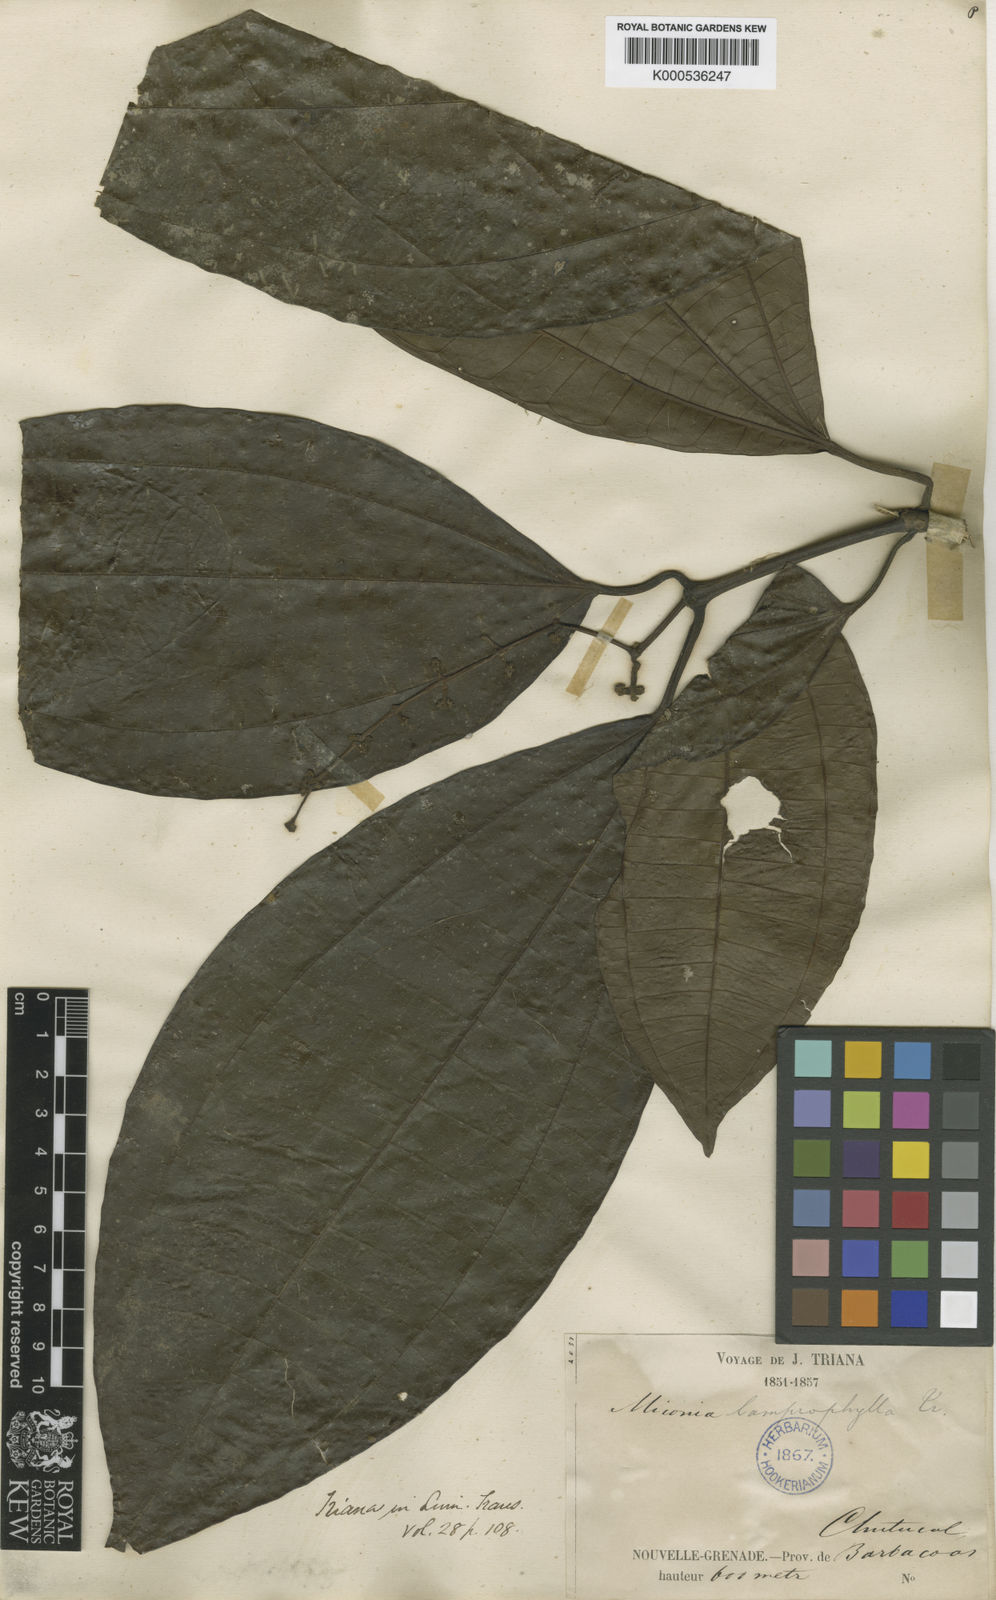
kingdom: Plantae
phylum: Tracheophyta
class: Magnoliopsida
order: Myrtales
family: Melastomataceae
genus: Miconia
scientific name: Miconia lamprophylla
